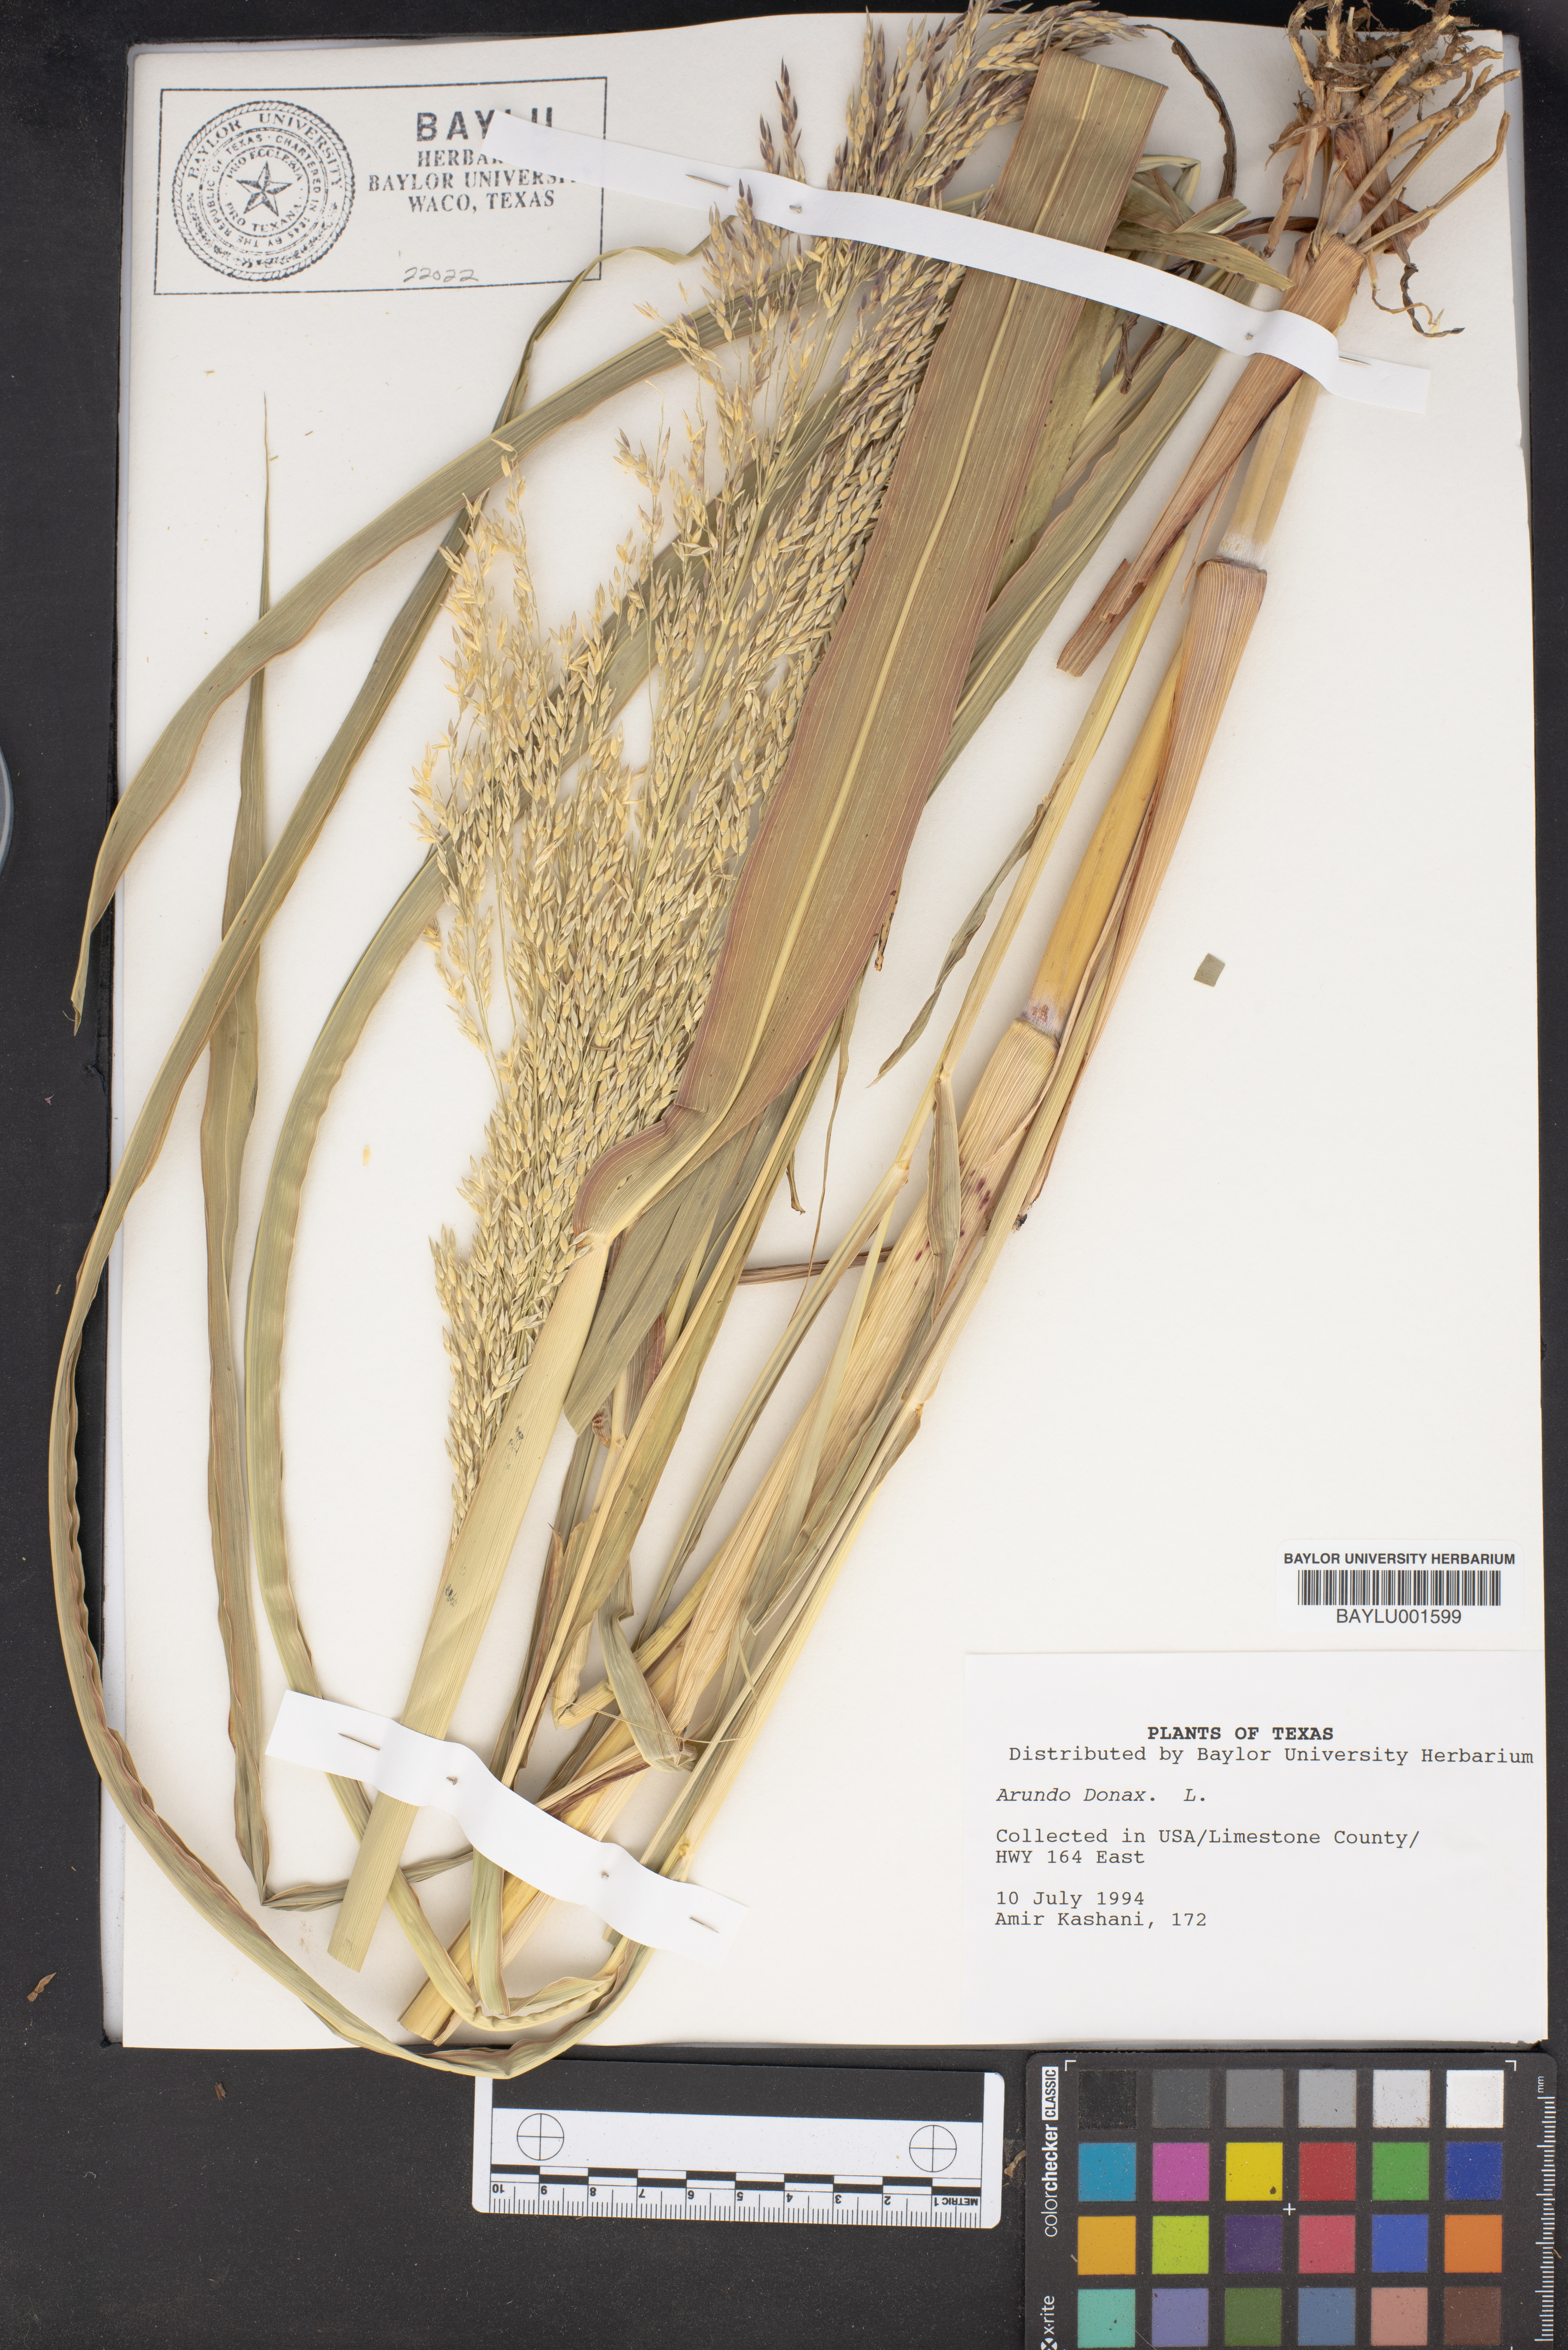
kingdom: Plantae
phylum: Tracheophyta
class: Liliopsida
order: Poales
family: Poaceae
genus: Arundo
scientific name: Arundo donax
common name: Giant reed
